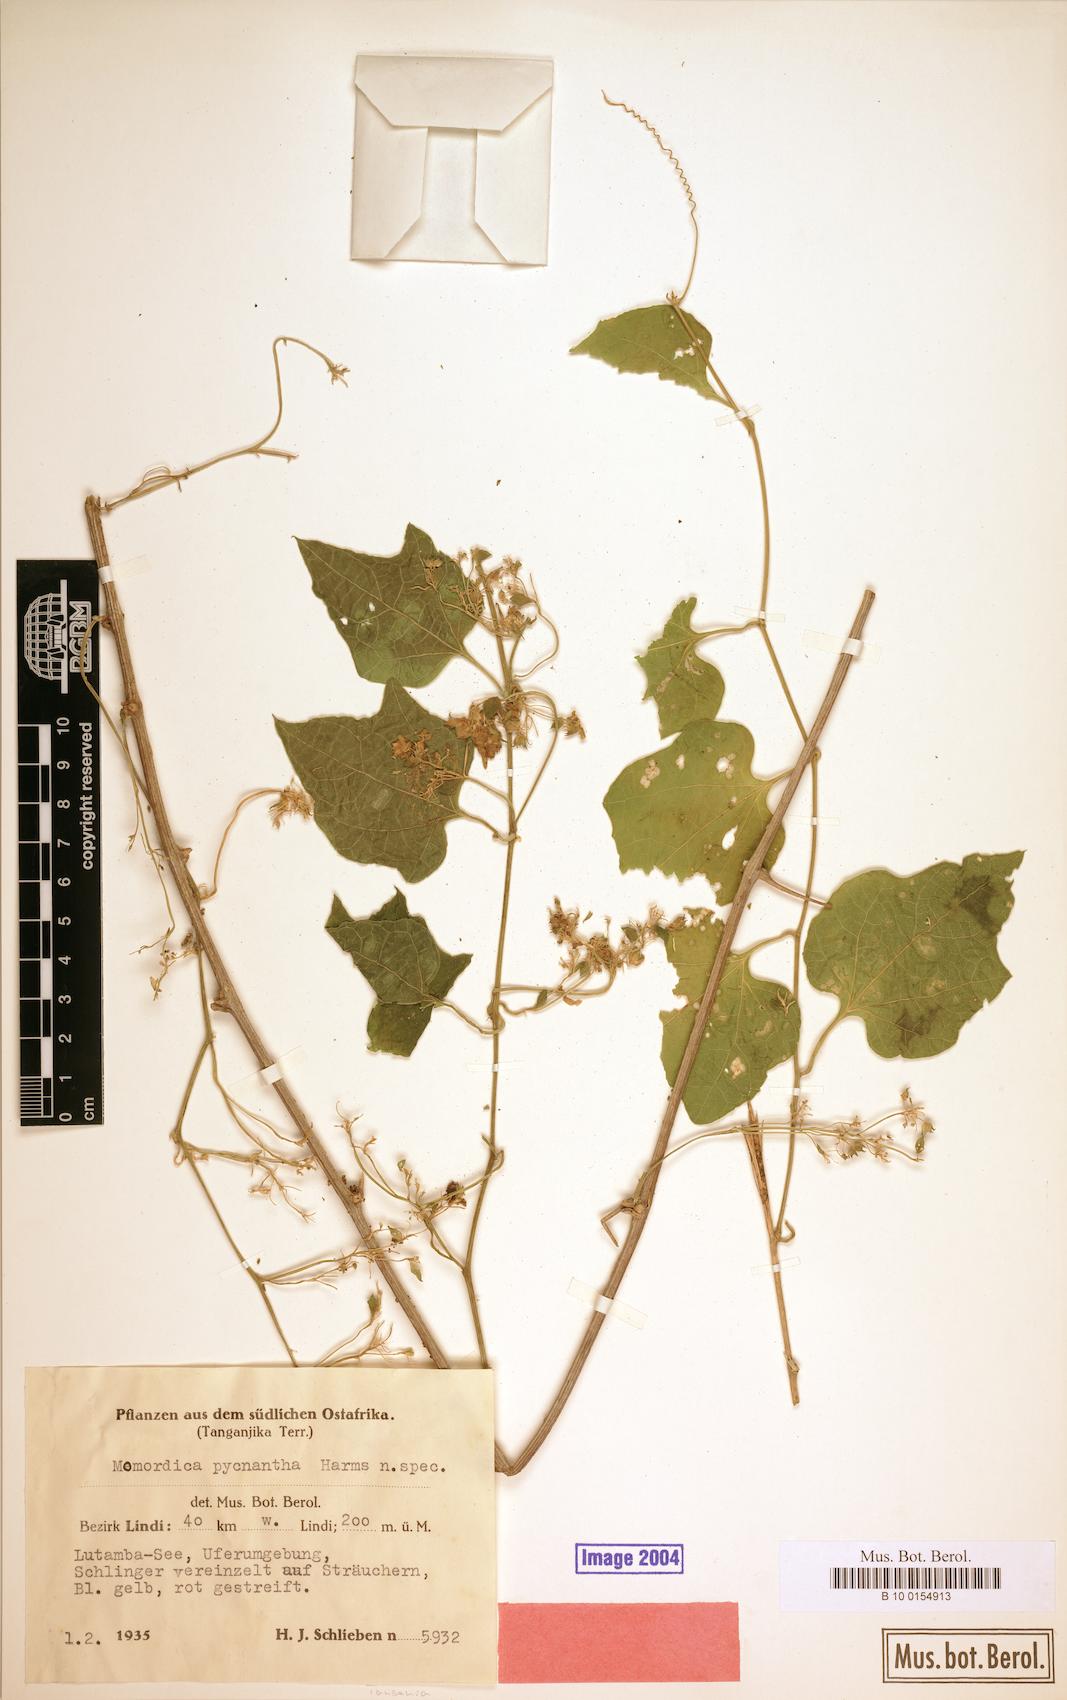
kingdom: Plantae
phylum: Tracheophyta
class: Magnoliopsida
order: Cucurbitales
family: Cucurbitaceae
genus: Momordica
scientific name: Momordica henriquesii
